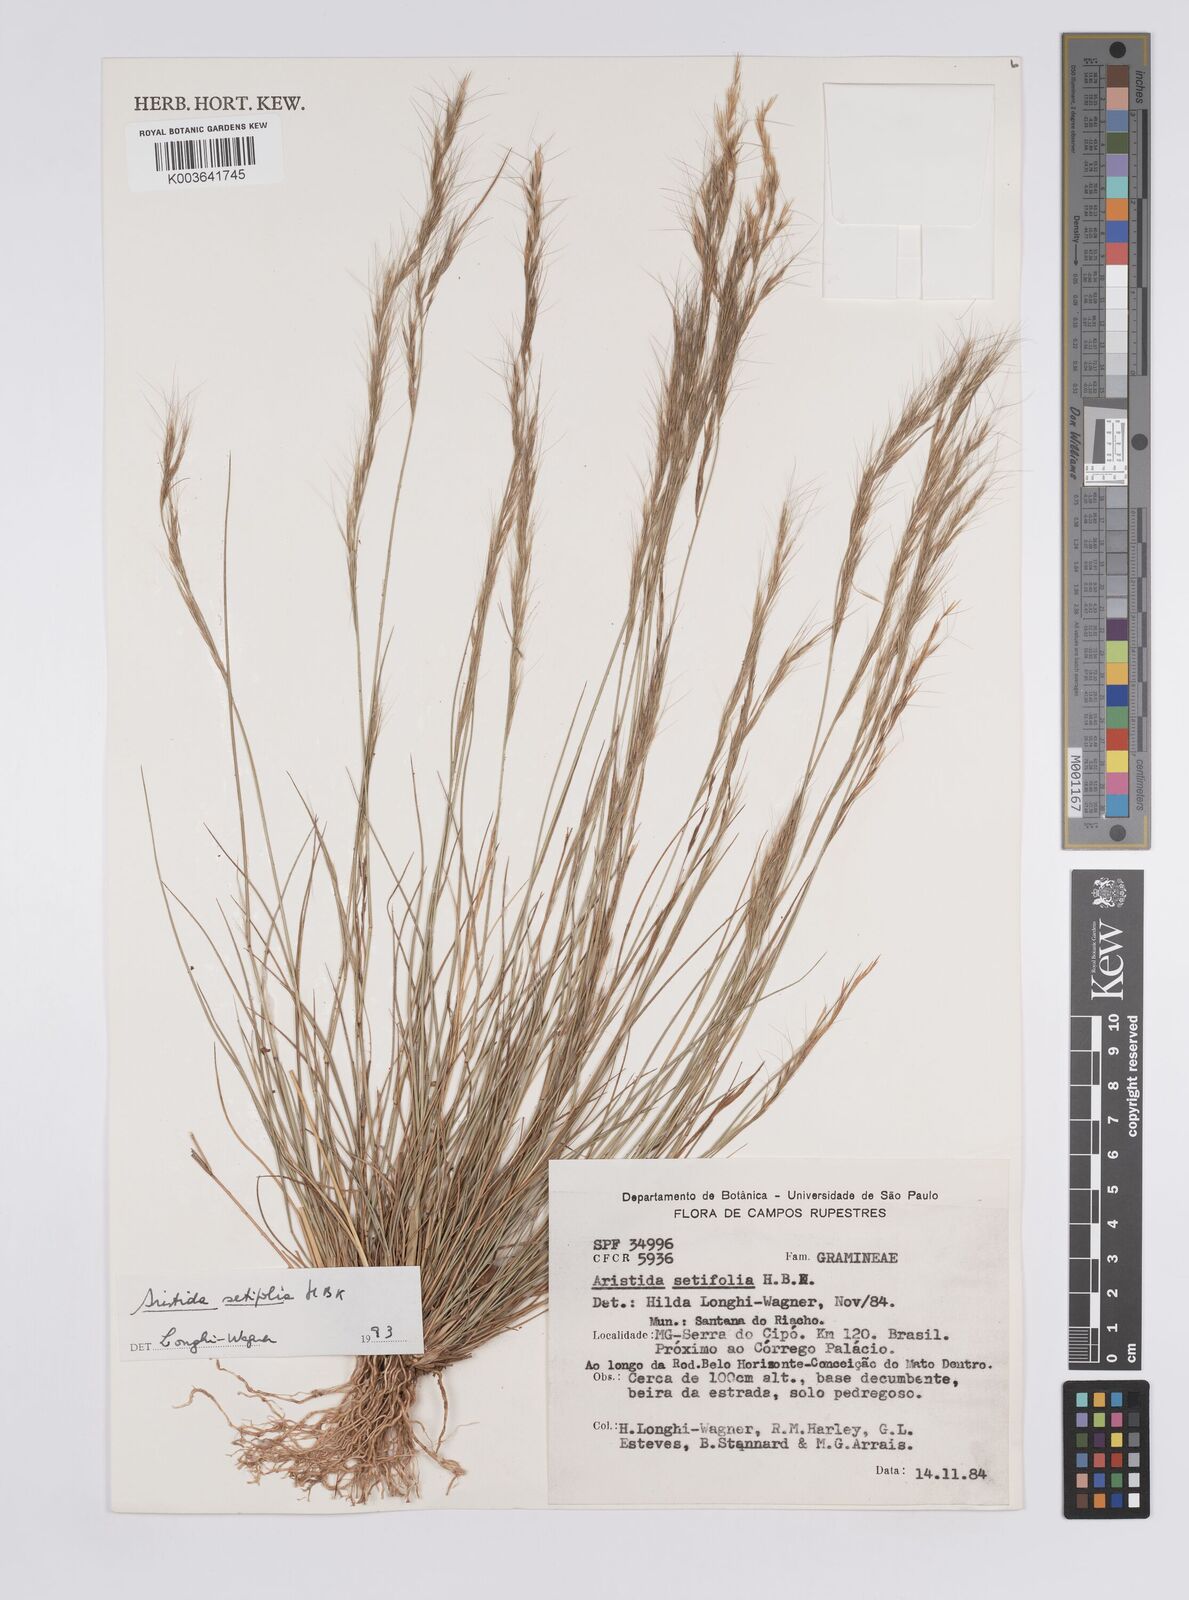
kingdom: Plantae
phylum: Tracheophyta
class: Liliopsida
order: Poales
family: Poaceae
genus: Aristida
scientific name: Aristida setifolia
